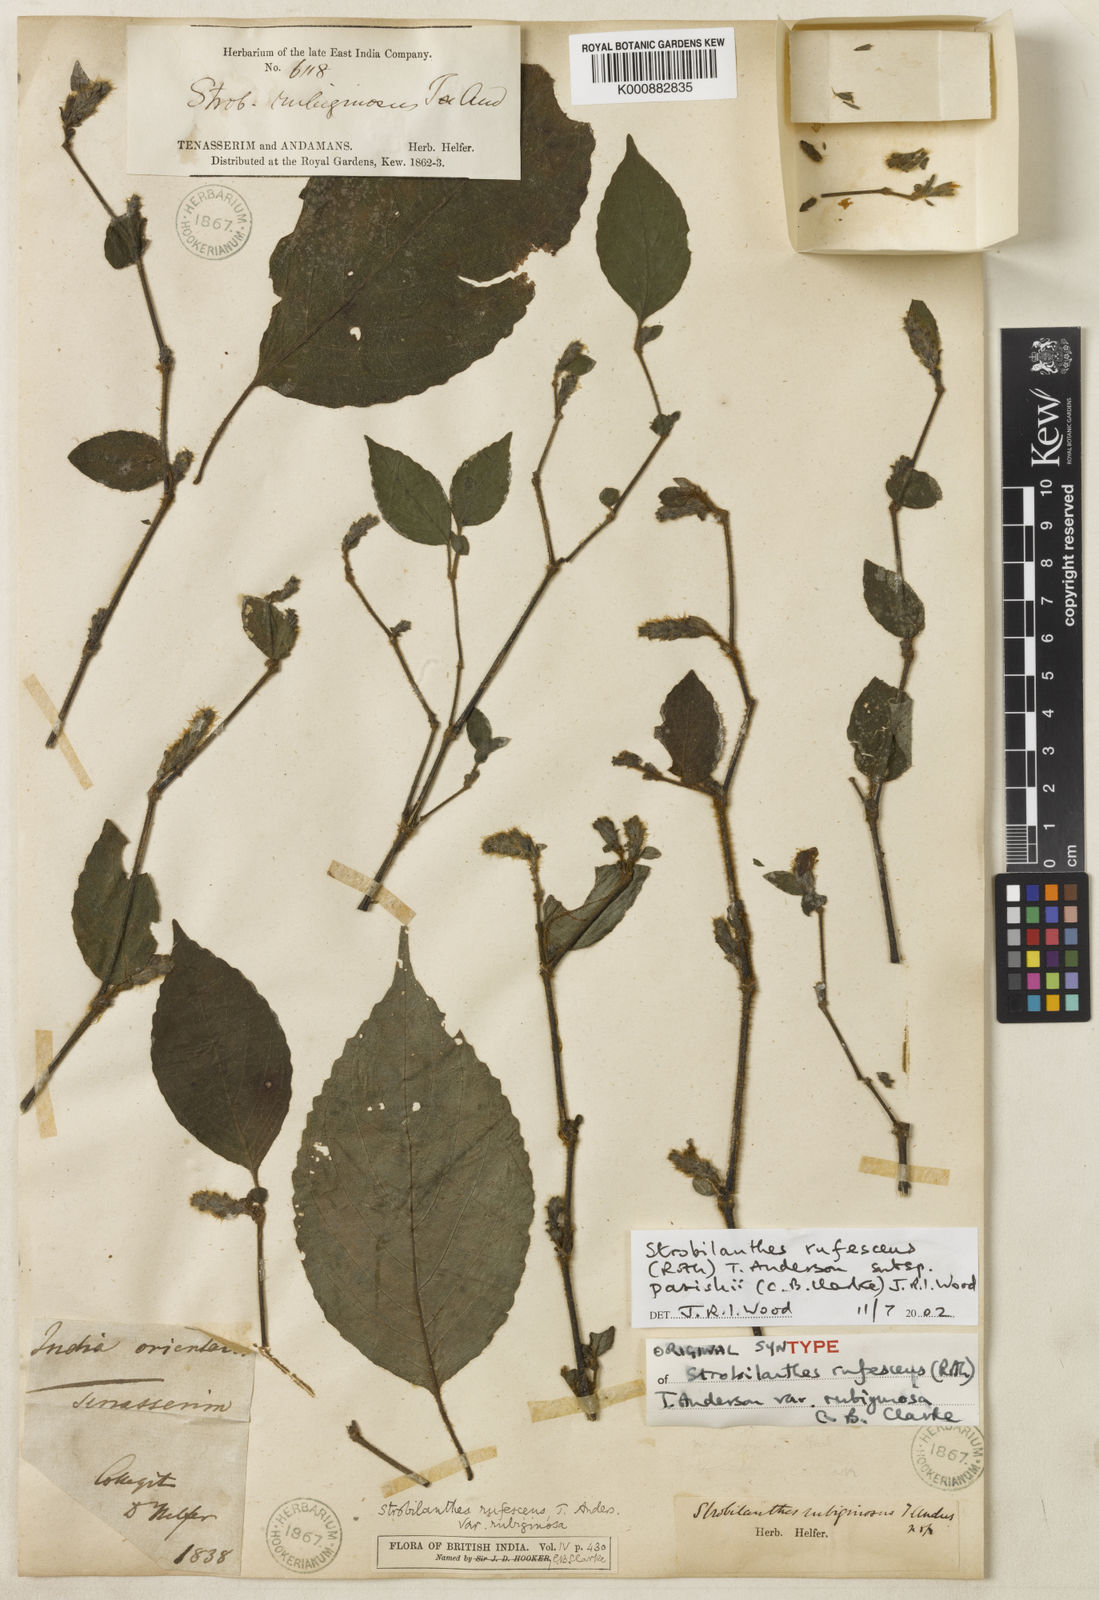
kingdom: Plantae
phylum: Tracheophyta
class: Magnoliopsida
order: Lamiales
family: Acanthaceae
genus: Strobilanthes
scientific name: Strobilanthes rufescens
